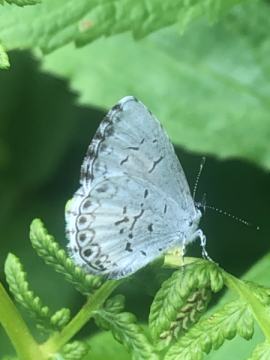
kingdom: Animalia
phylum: Arthropoda
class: Insecta
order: Lepidoptera
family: Lycaenidae
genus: Cyaniris
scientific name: Cyaniris neglecta
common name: Summer Azure
